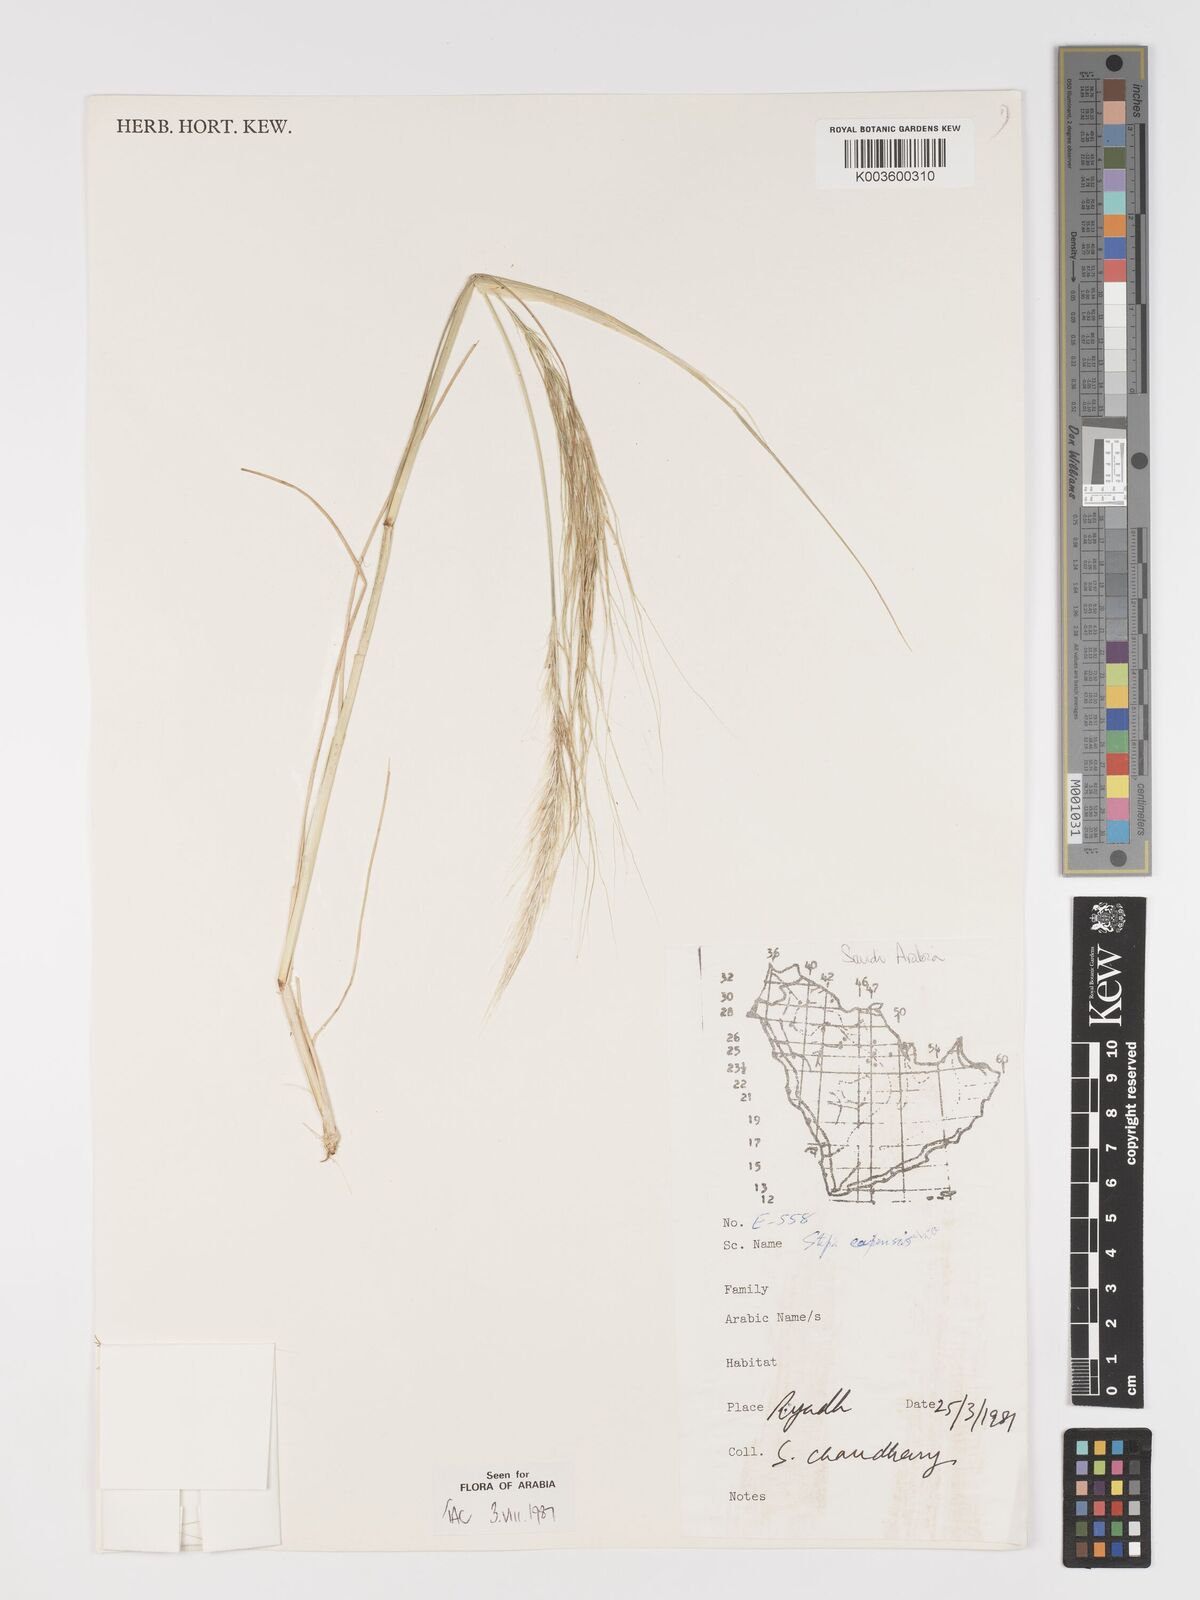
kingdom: Plantae
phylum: Tracheophyta
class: Liliopsida
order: Poales
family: Poaceae
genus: Stipellula
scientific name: Stipellula capensis
